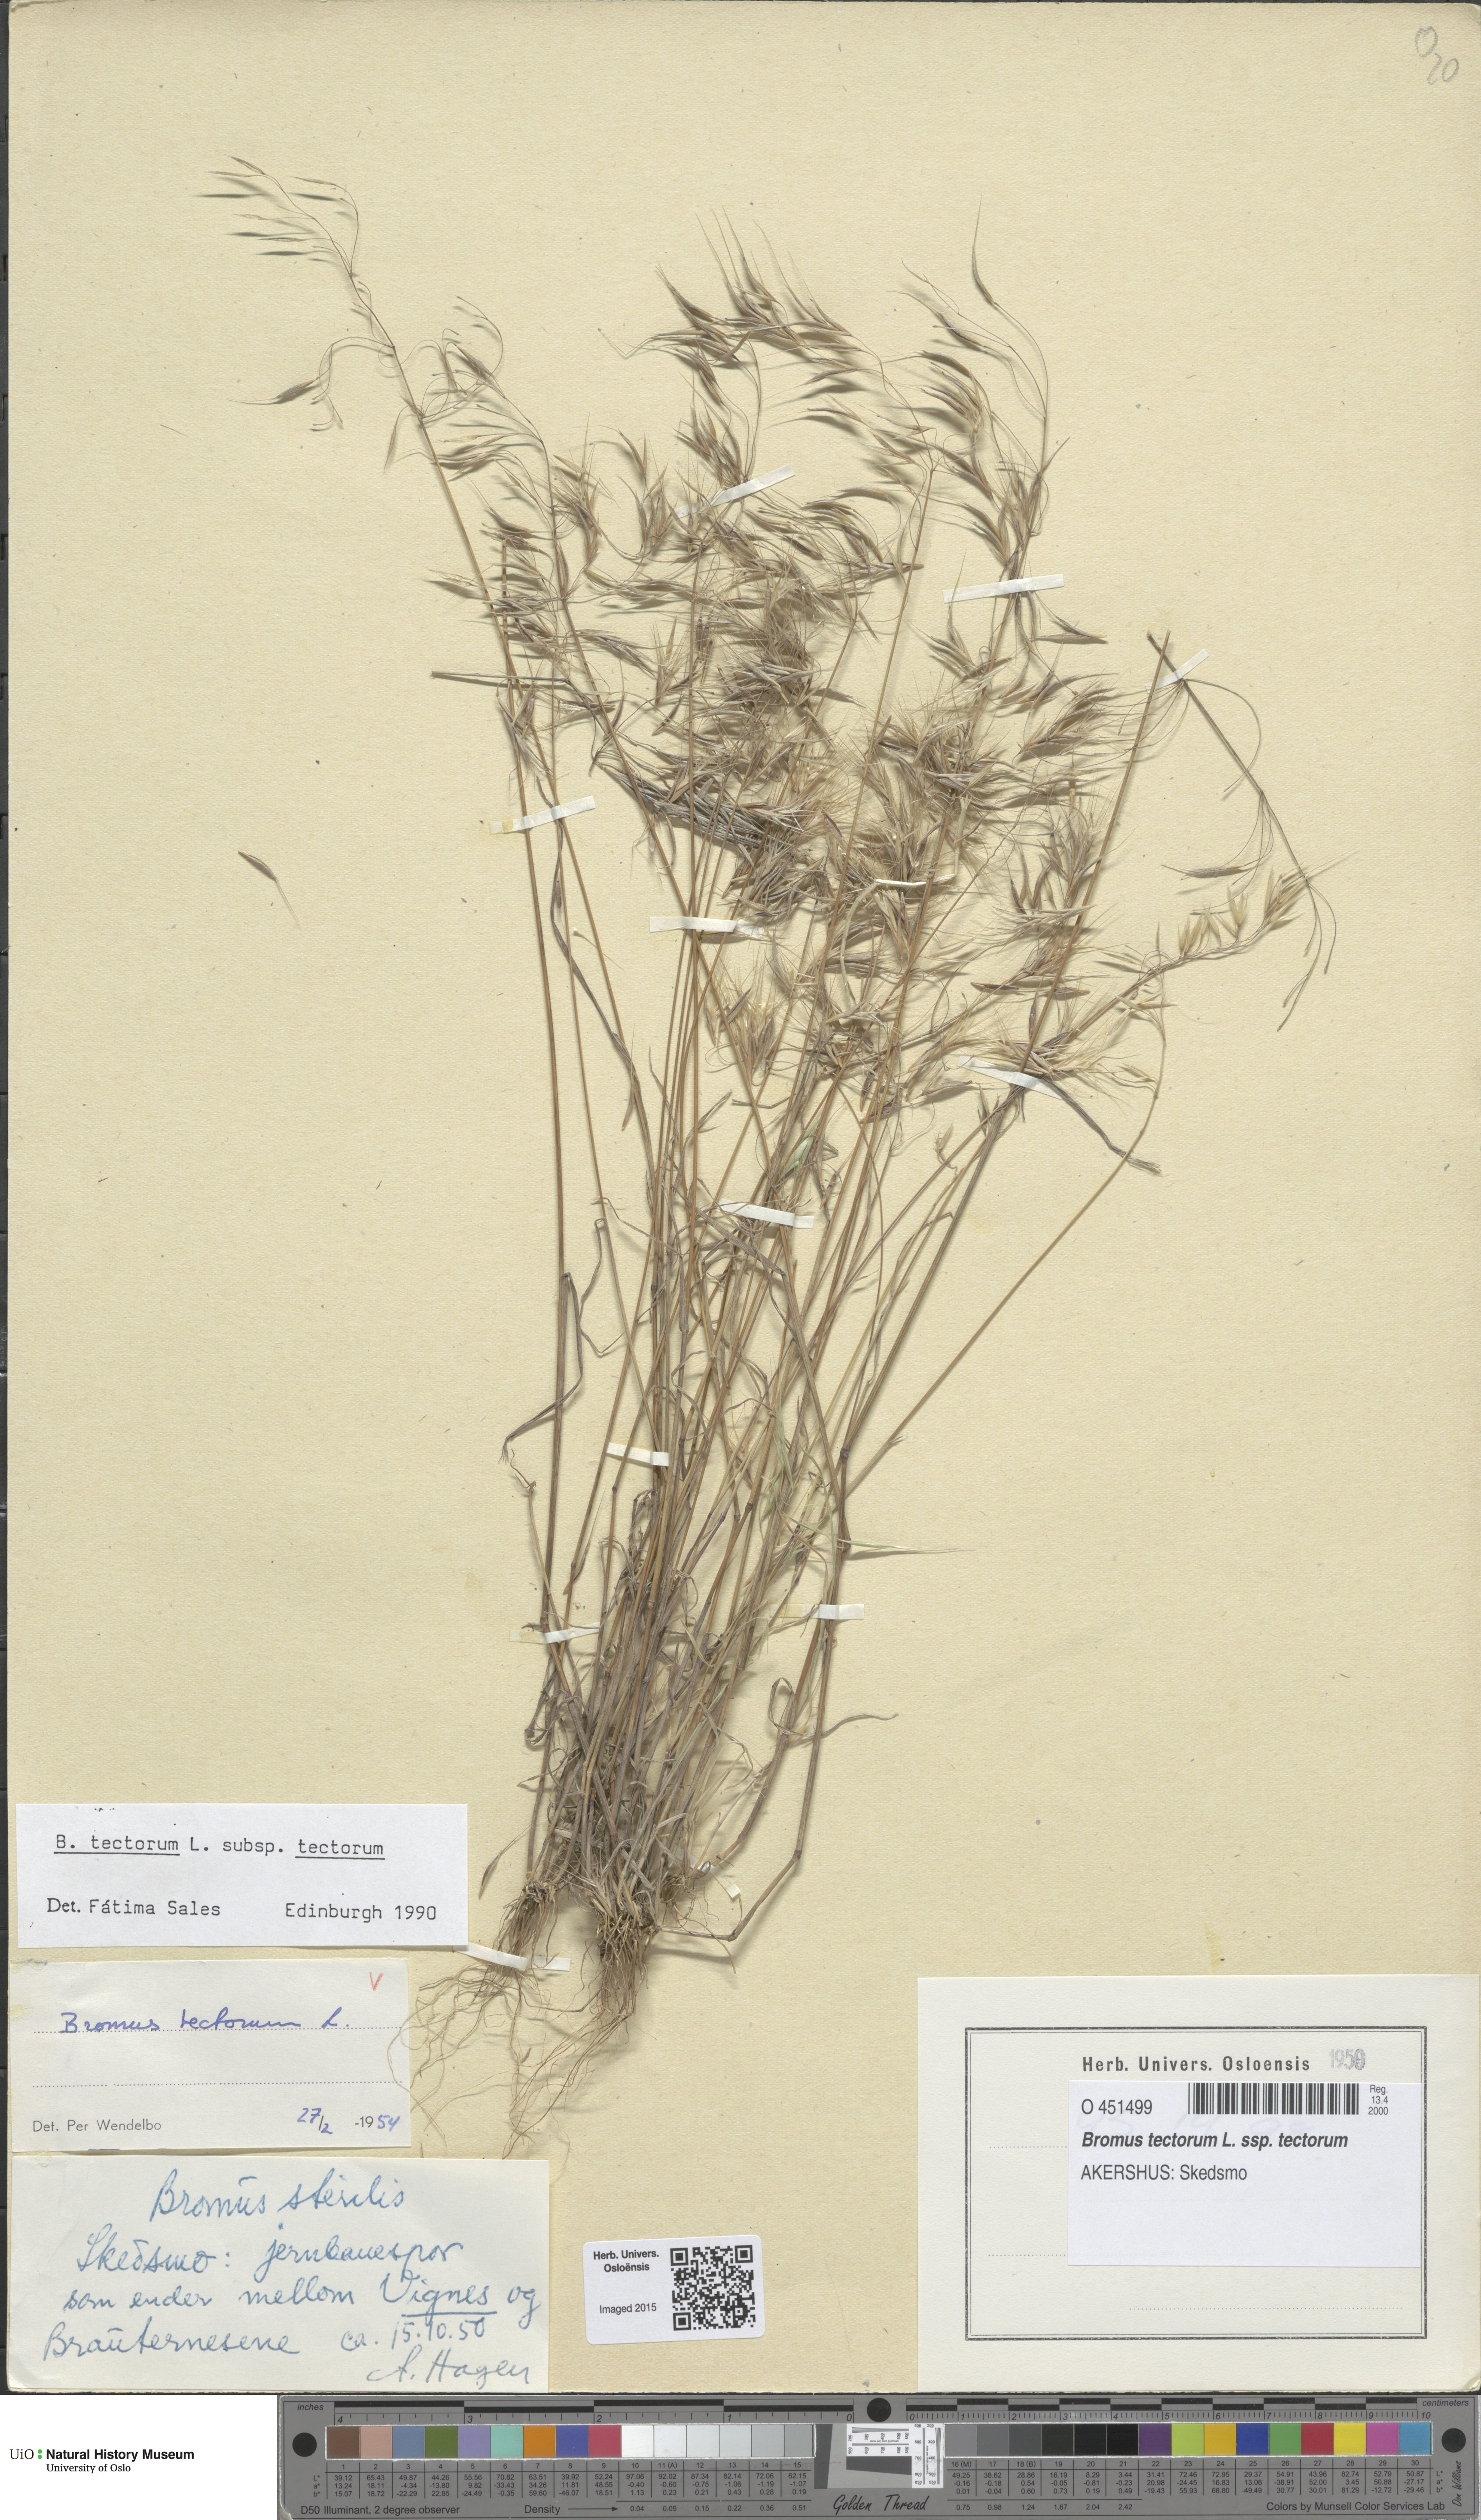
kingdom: Plantae
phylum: Tracheophyta
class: Liliopsida
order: Poales
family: Poaceae
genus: Bromus
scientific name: Bromus tectorum
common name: Cheatgrass
